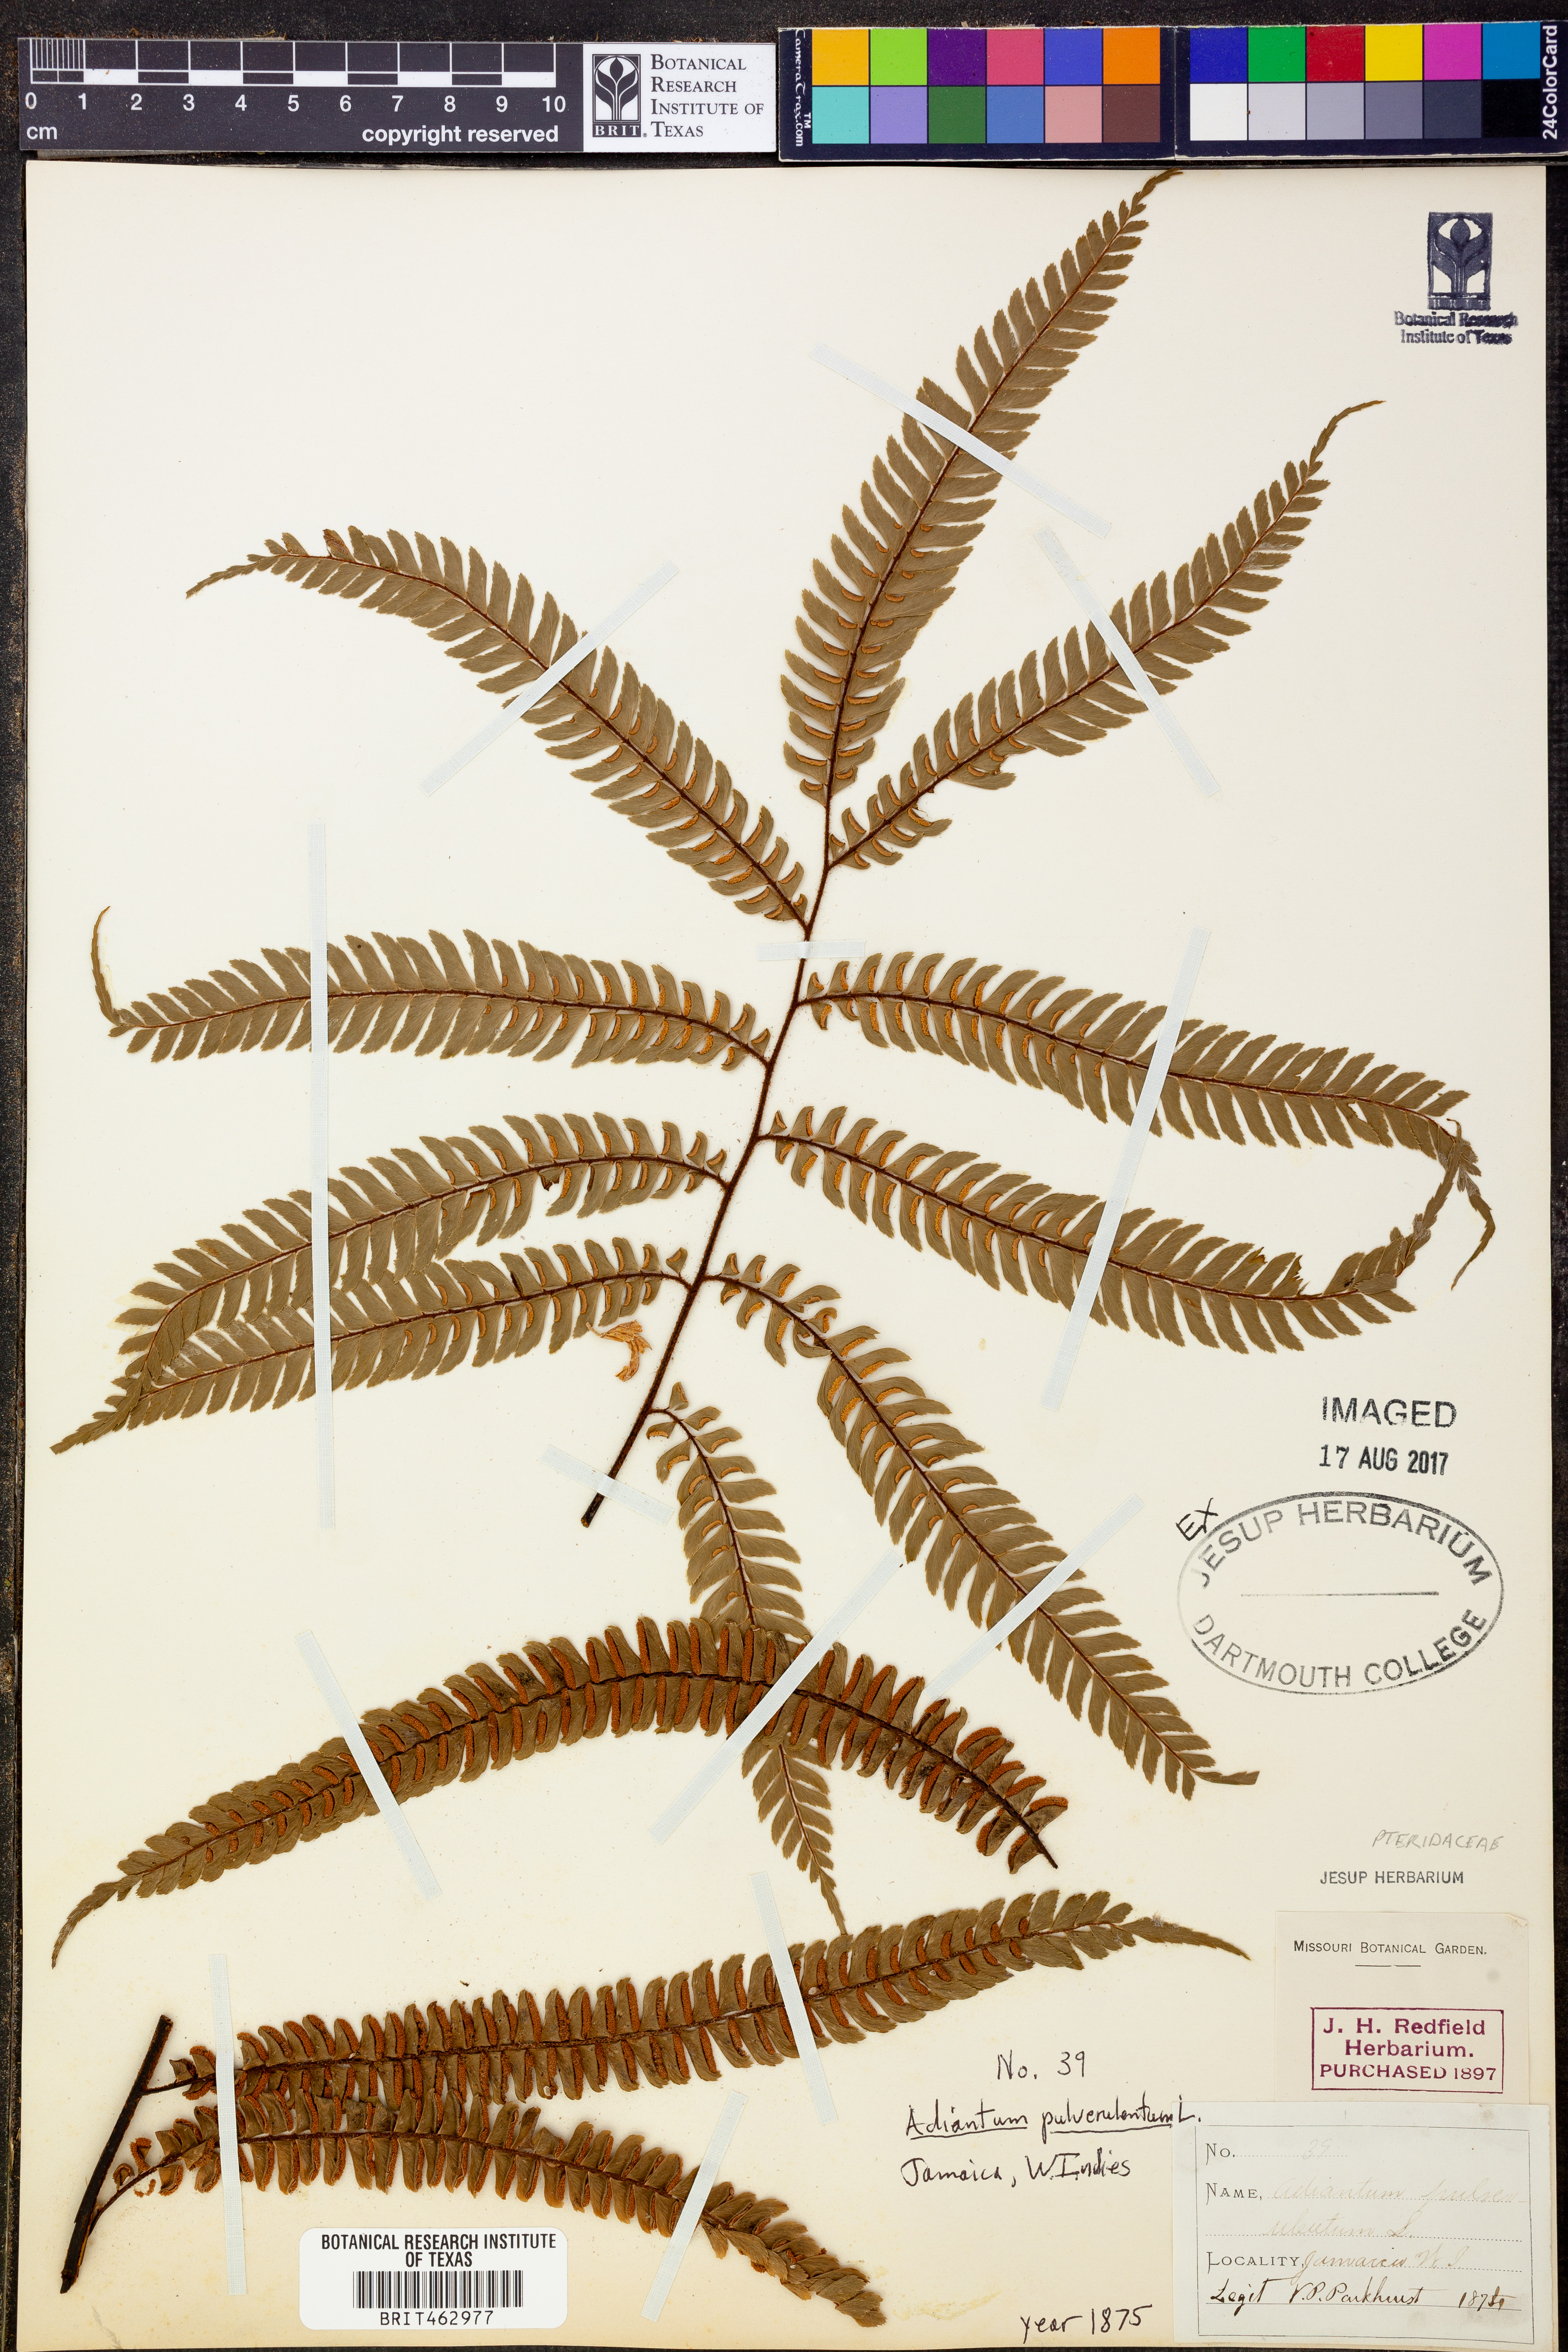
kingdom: Plantae
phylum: Tracheophyta
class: Polypodiopsida
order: Polypodiales
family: Pteridaceae
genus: Adiantum
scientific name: Adiantum pulverulentum
